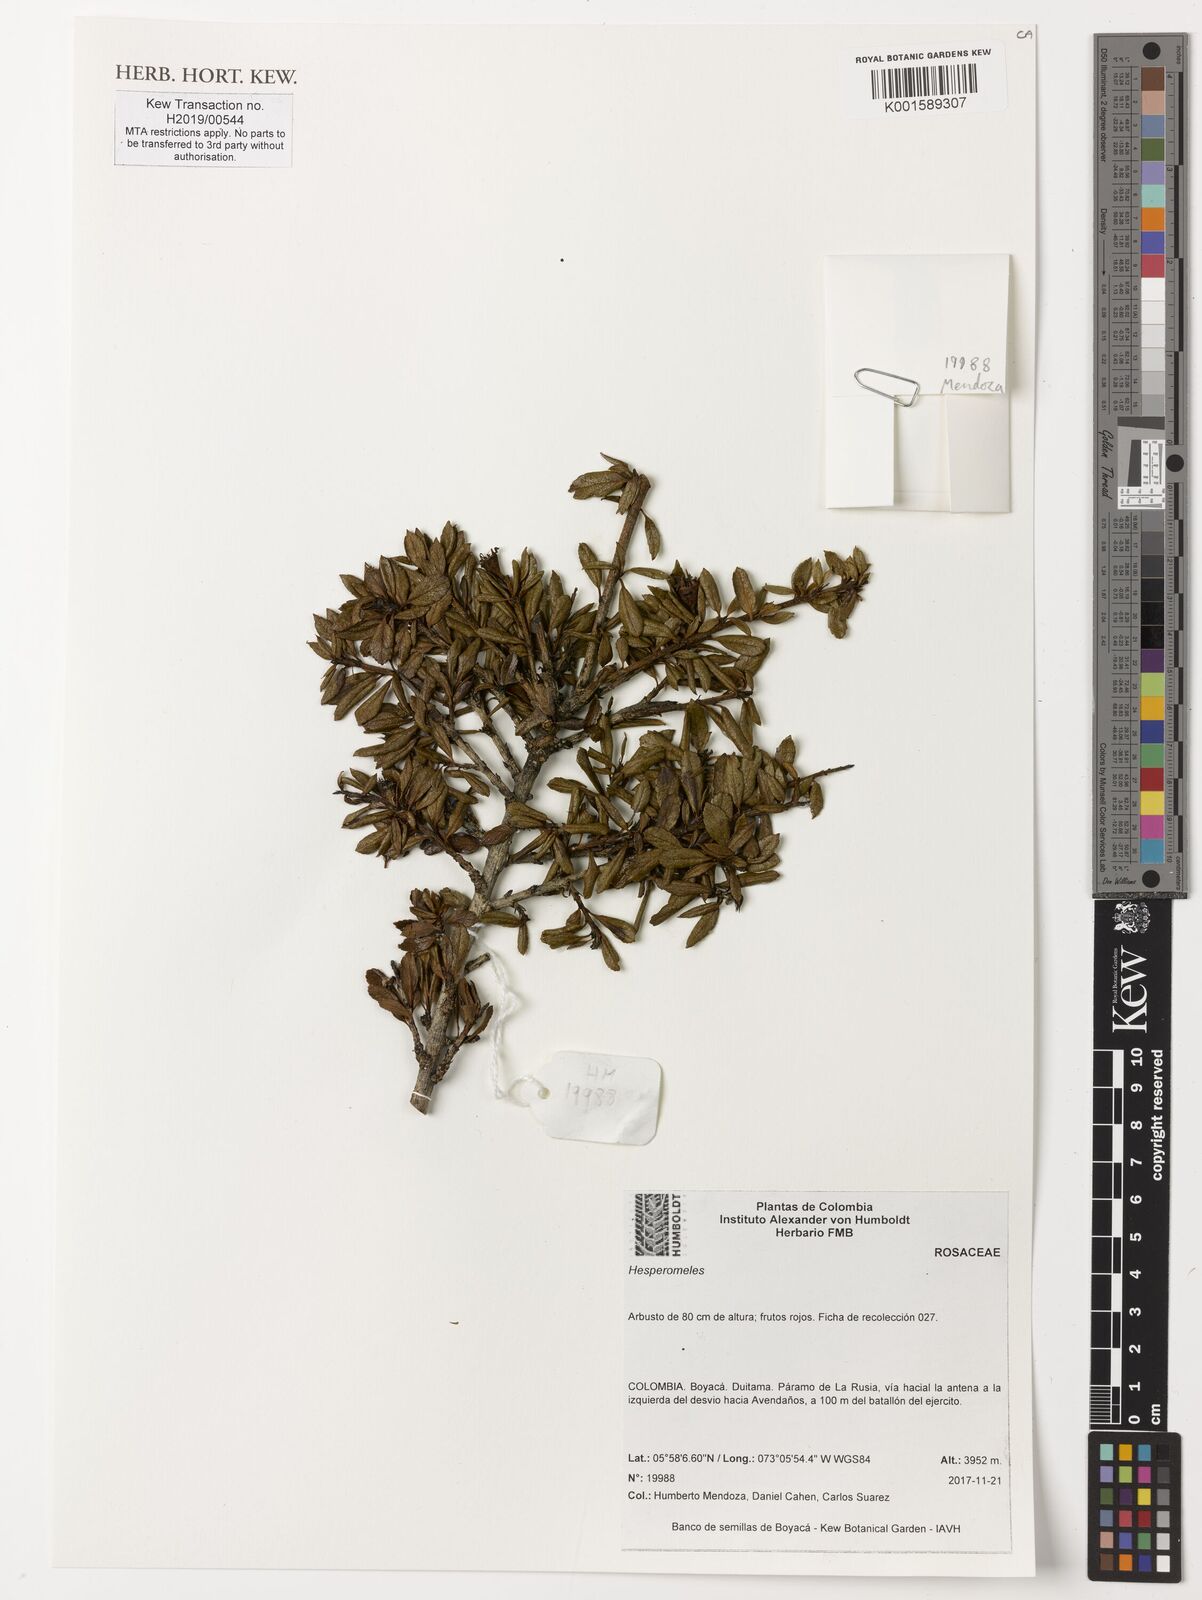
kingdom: Plantae
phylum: Tracheophyta
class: Magnoliopsida
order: Rosales
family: Rosaceae
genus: Hesperomeles
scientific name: Hesperomeles
